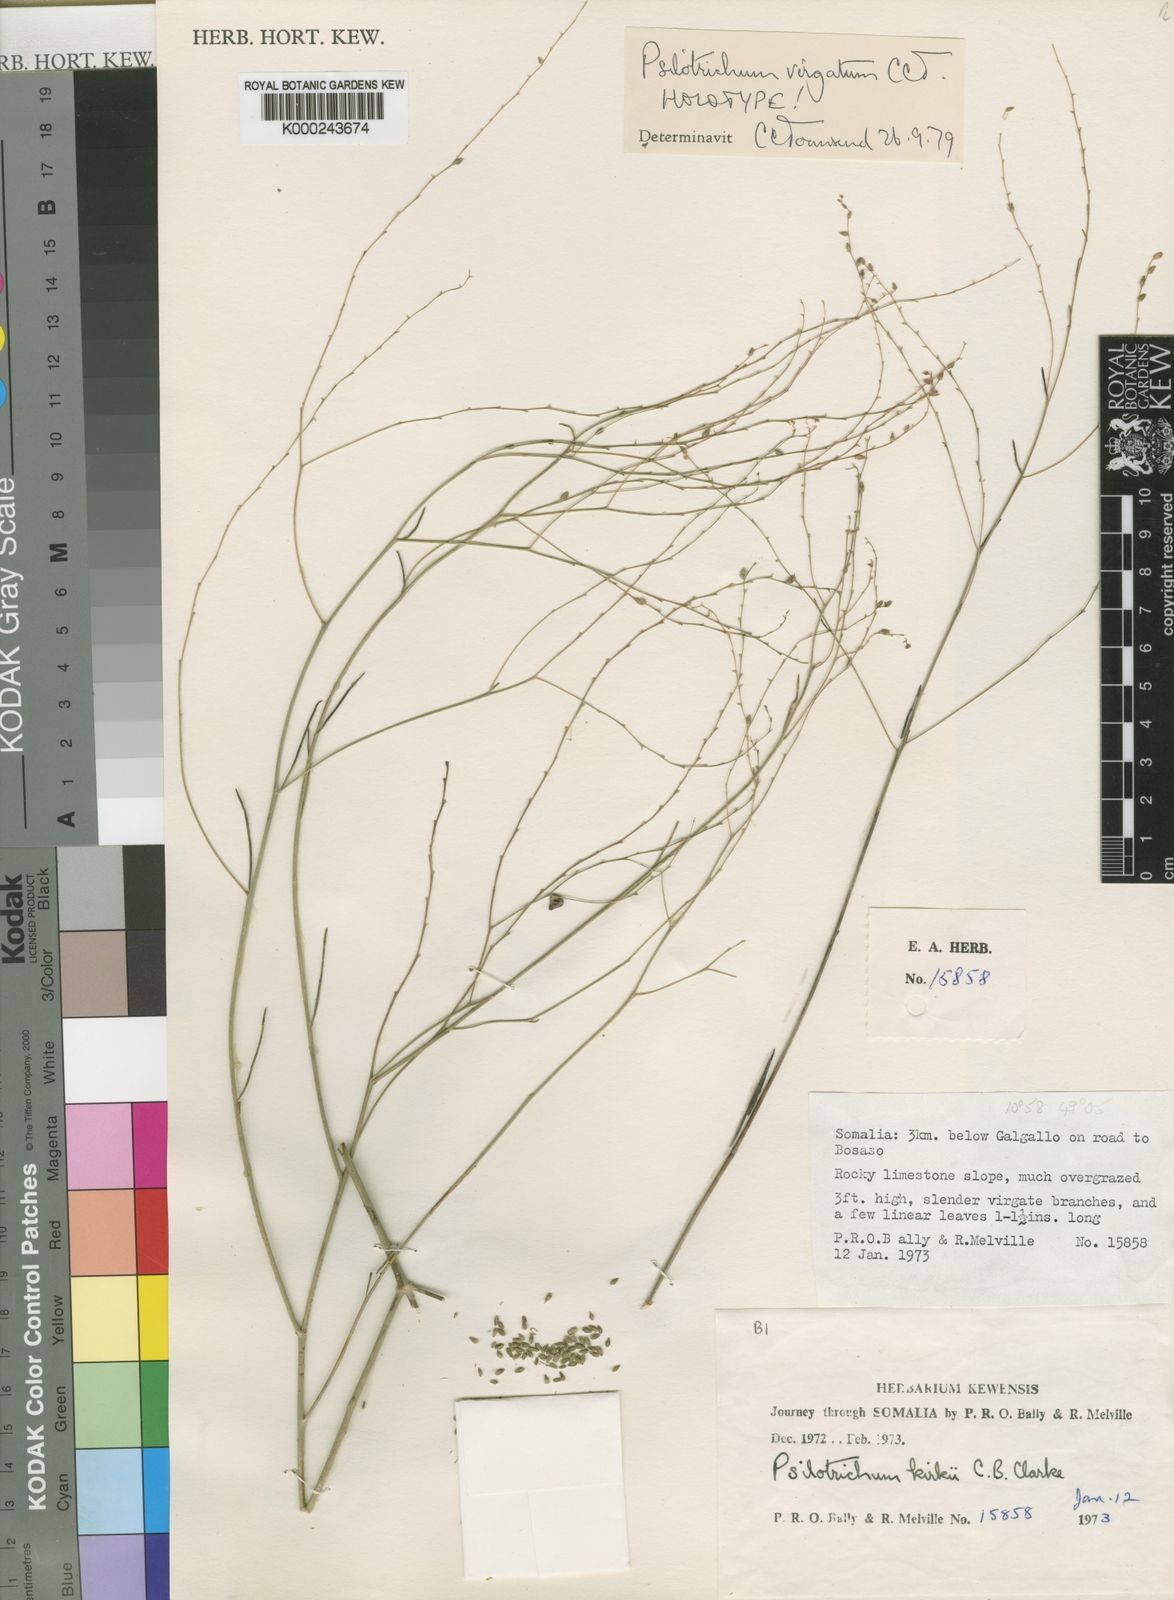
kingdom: Plantae
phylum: Tracheophyta
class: Magnoliopsida
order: Caryophyllales
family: Amaranthaceae
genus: Psilotrichum
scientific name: Psilotrichum virgatum
